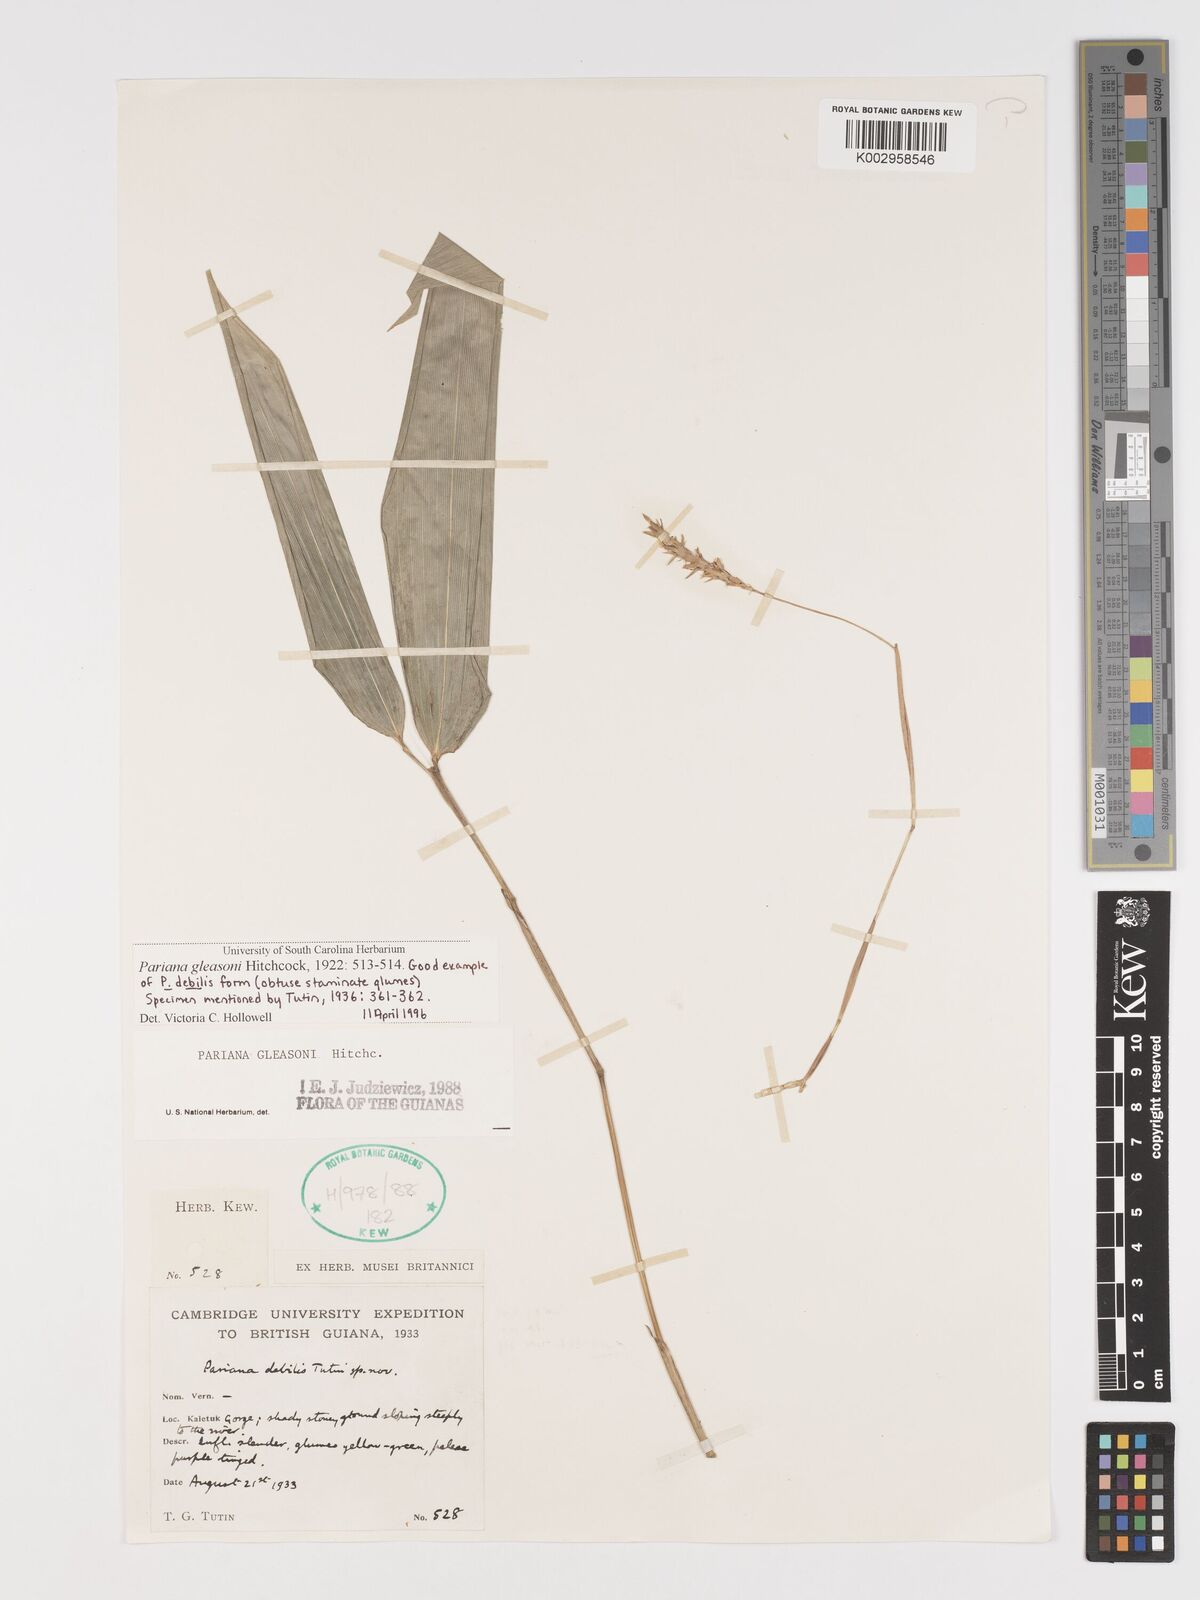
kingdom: Plantae
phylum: Tracheophyta
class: Liliopsida
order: Poales
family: Poaceae
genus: Pariana
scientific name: Pariana radiciflora
